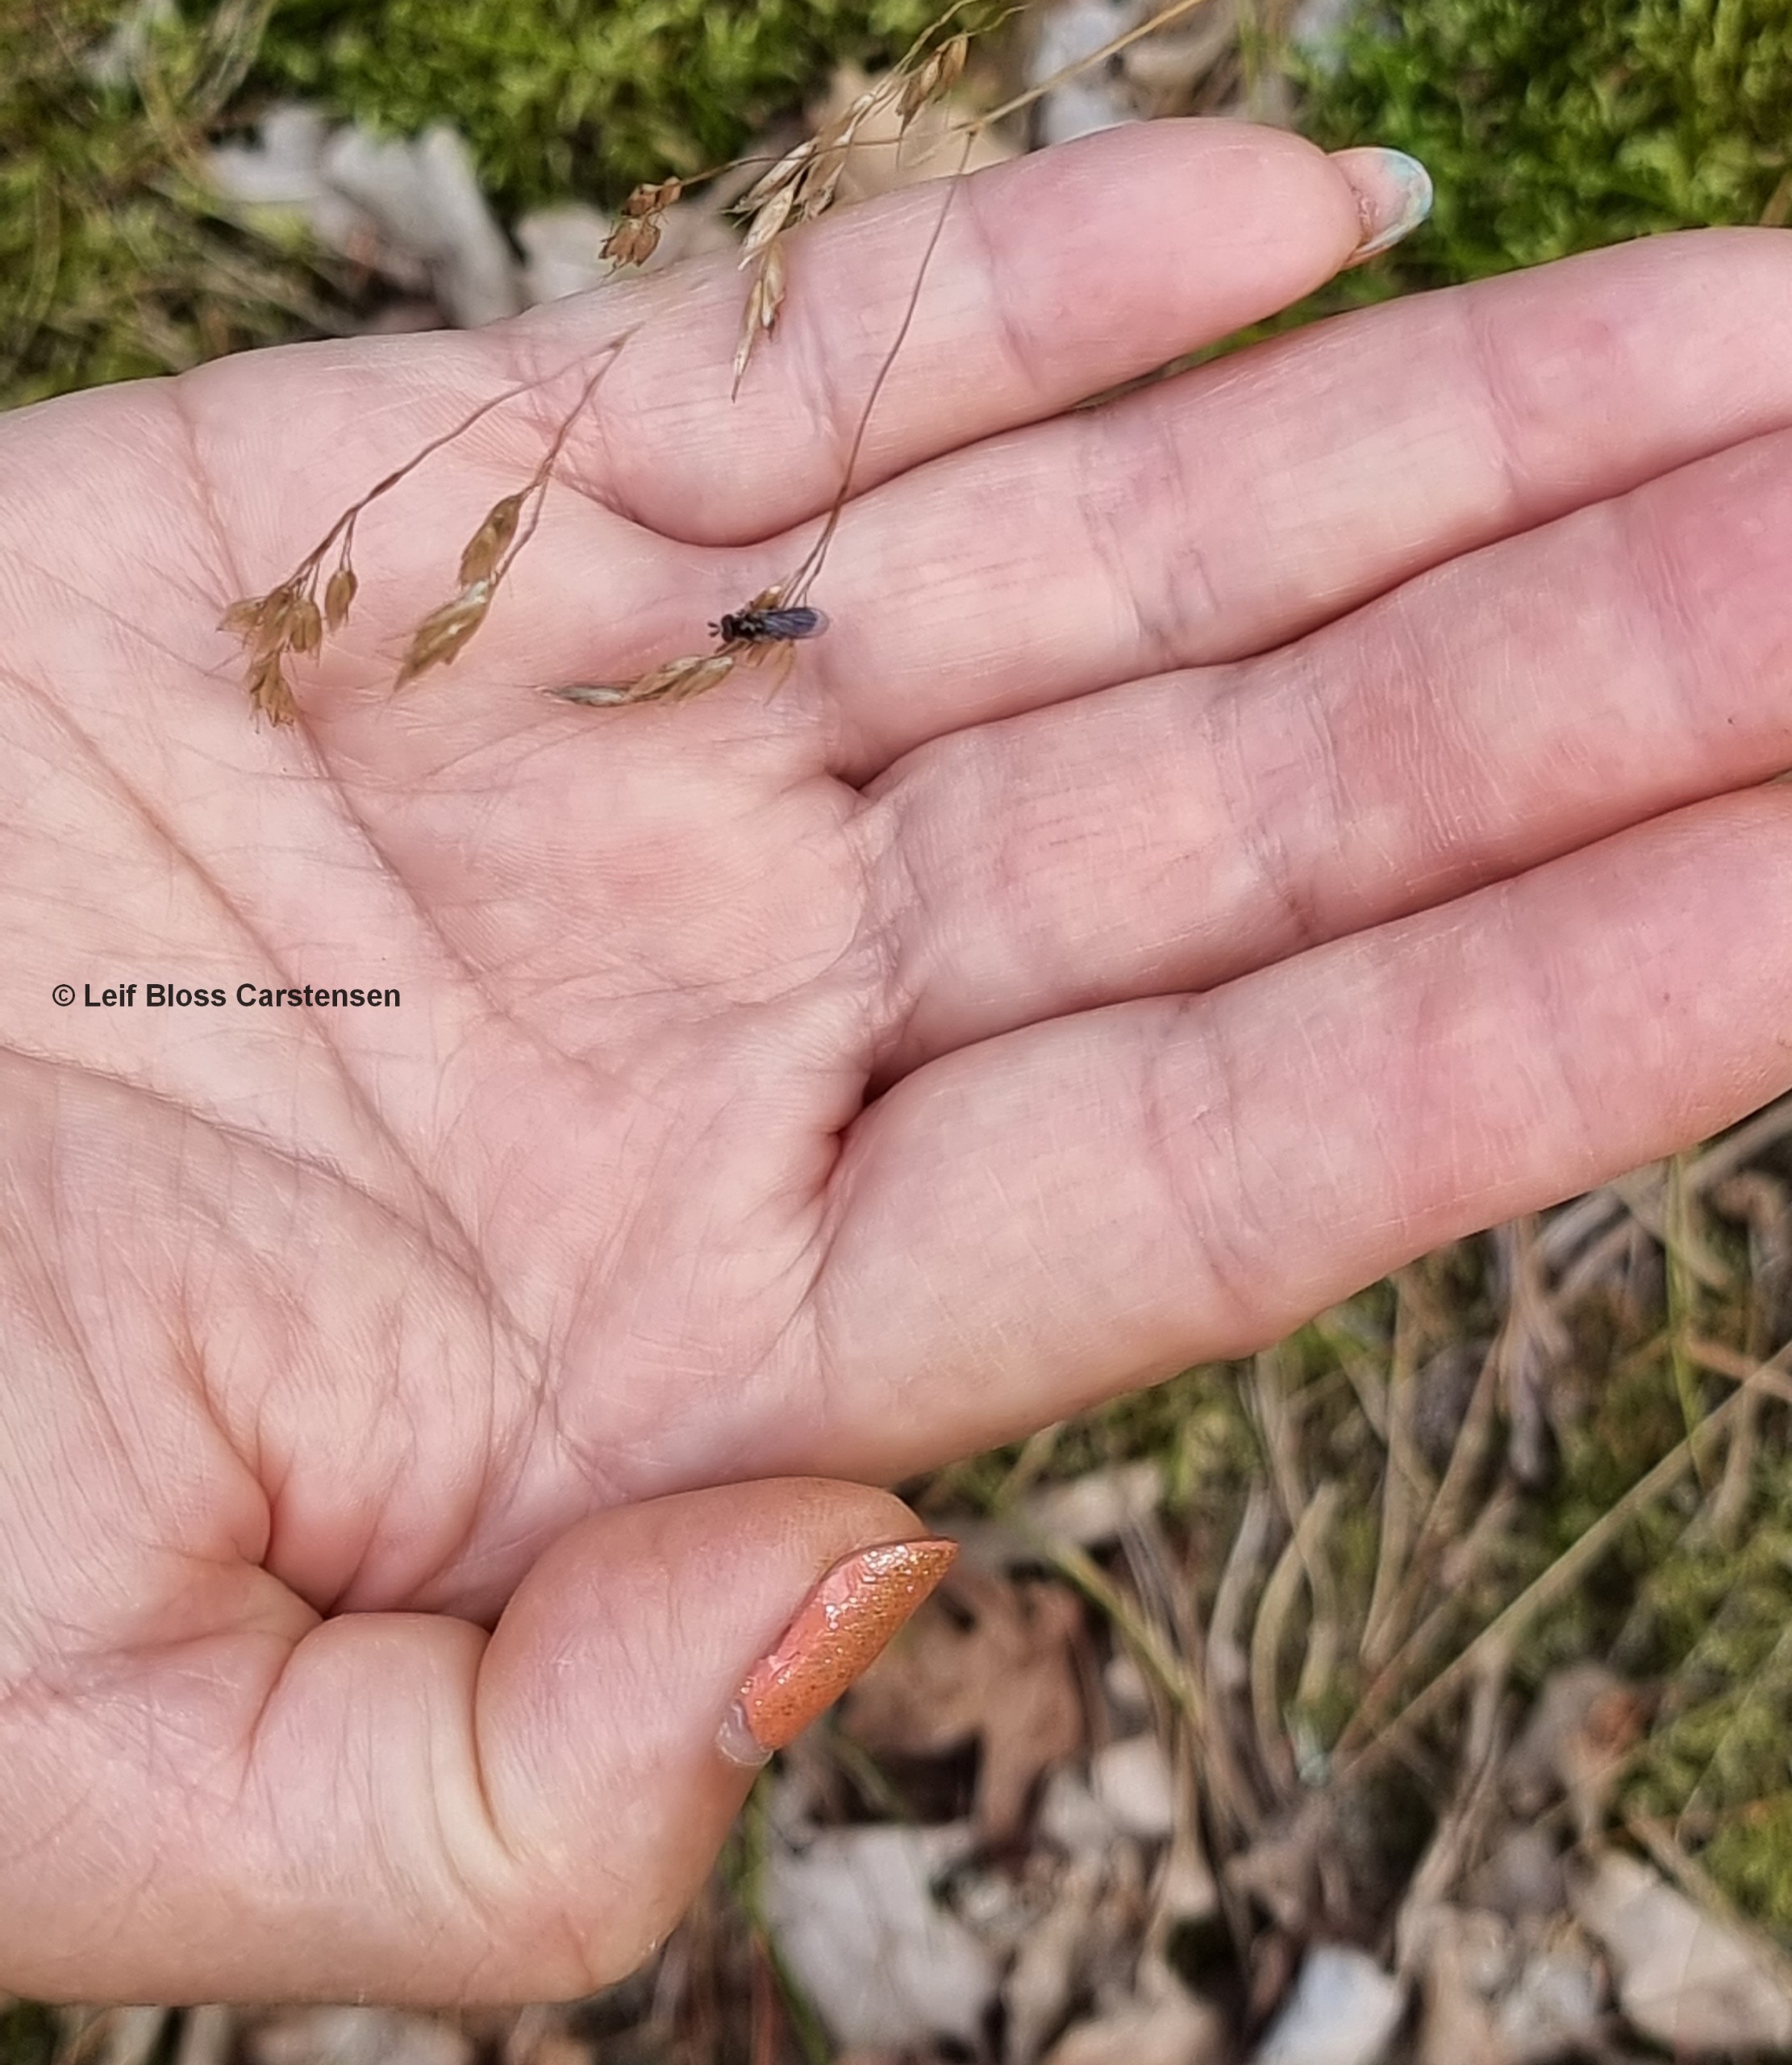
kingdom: Animalia
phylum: Arthropoda
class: Insecta
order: Diptera
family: Syrphidae
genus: Chamaesyrphus
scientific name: Chamaesyrphus lugubris
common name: Dværg-svirreflue
